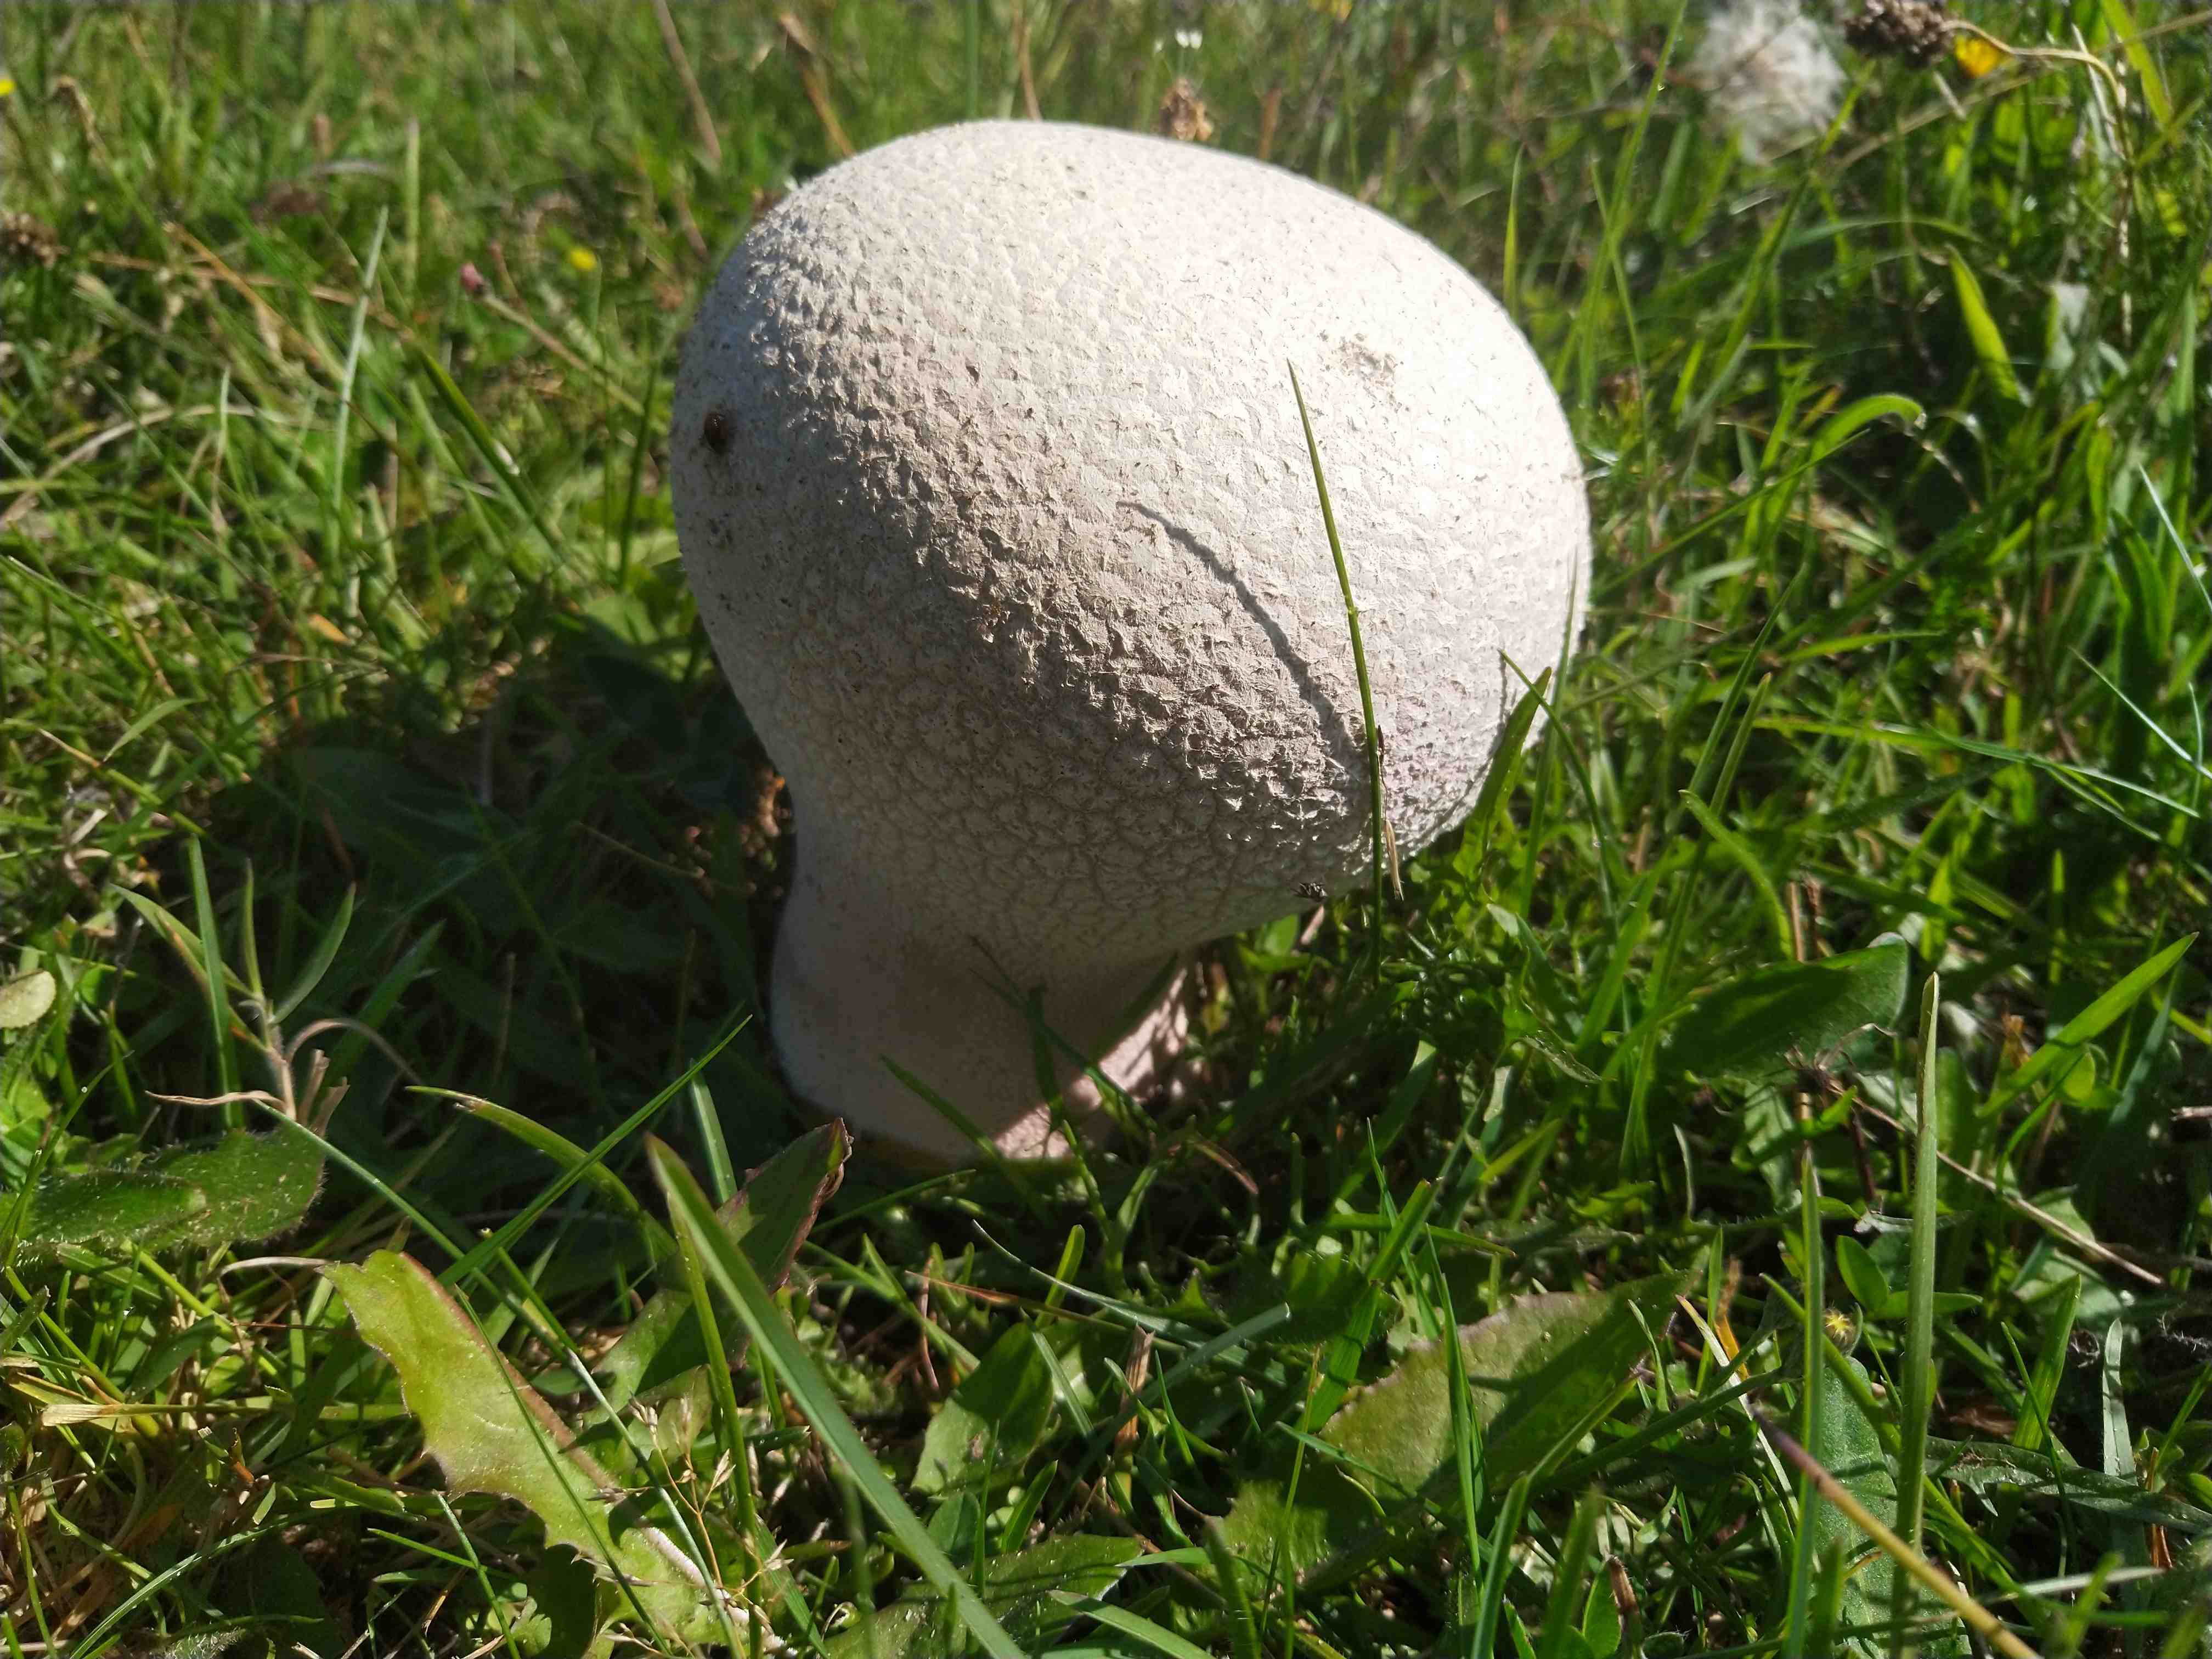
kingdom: Fungi
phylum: Basidiomycota
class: Agaricomycetes
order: Agaricales
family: Lycoperdaceae
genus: Bovistella
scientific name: Bovistella utriformis
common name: skællet støvbold
